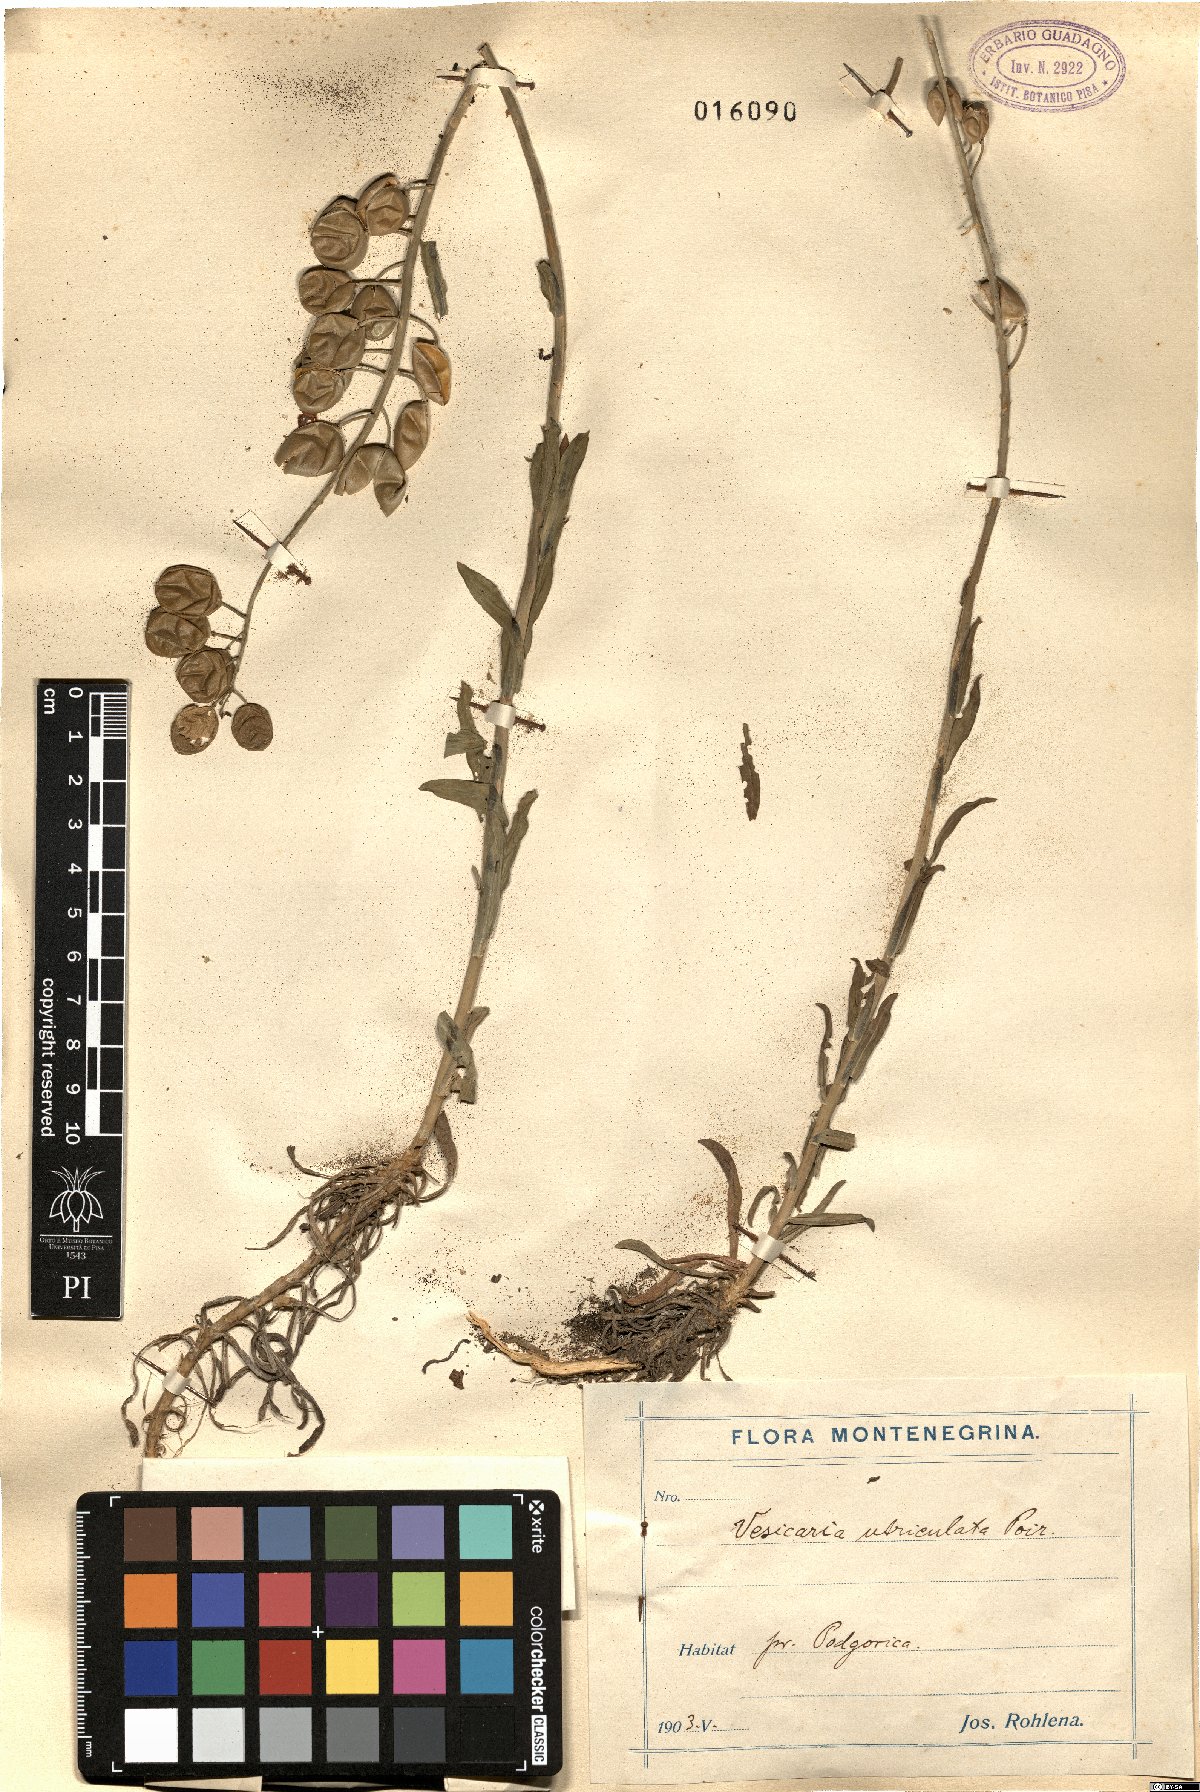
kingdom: Plantae
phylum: Tracheophyta
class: Magnoliopsida
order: Brassicales
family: Brassicaceae
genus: Alyssoides
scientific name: Alyssoides utriculata
